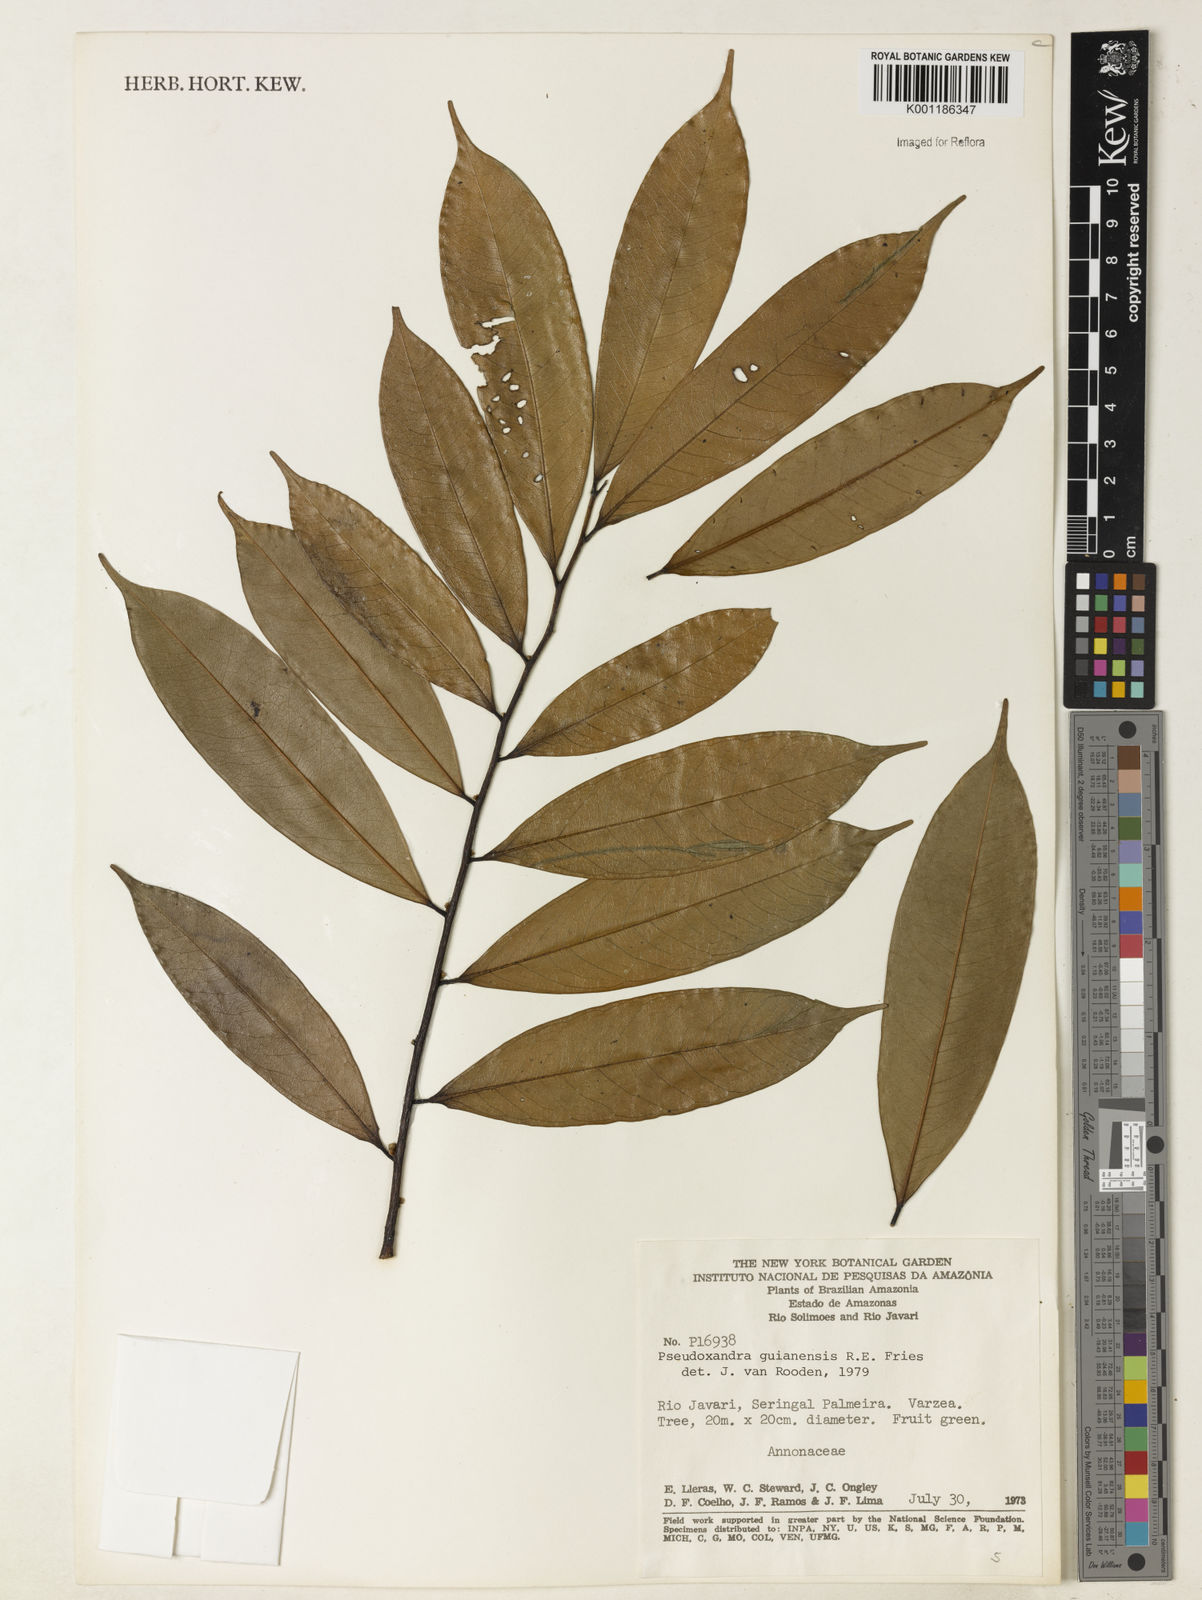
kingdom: Plantae
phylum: Tracheophyta
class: Magnoliopsida
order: Magnoliales
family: Annonaceae
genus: Pseudoxandra
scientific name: Pseudoxandra lucida
